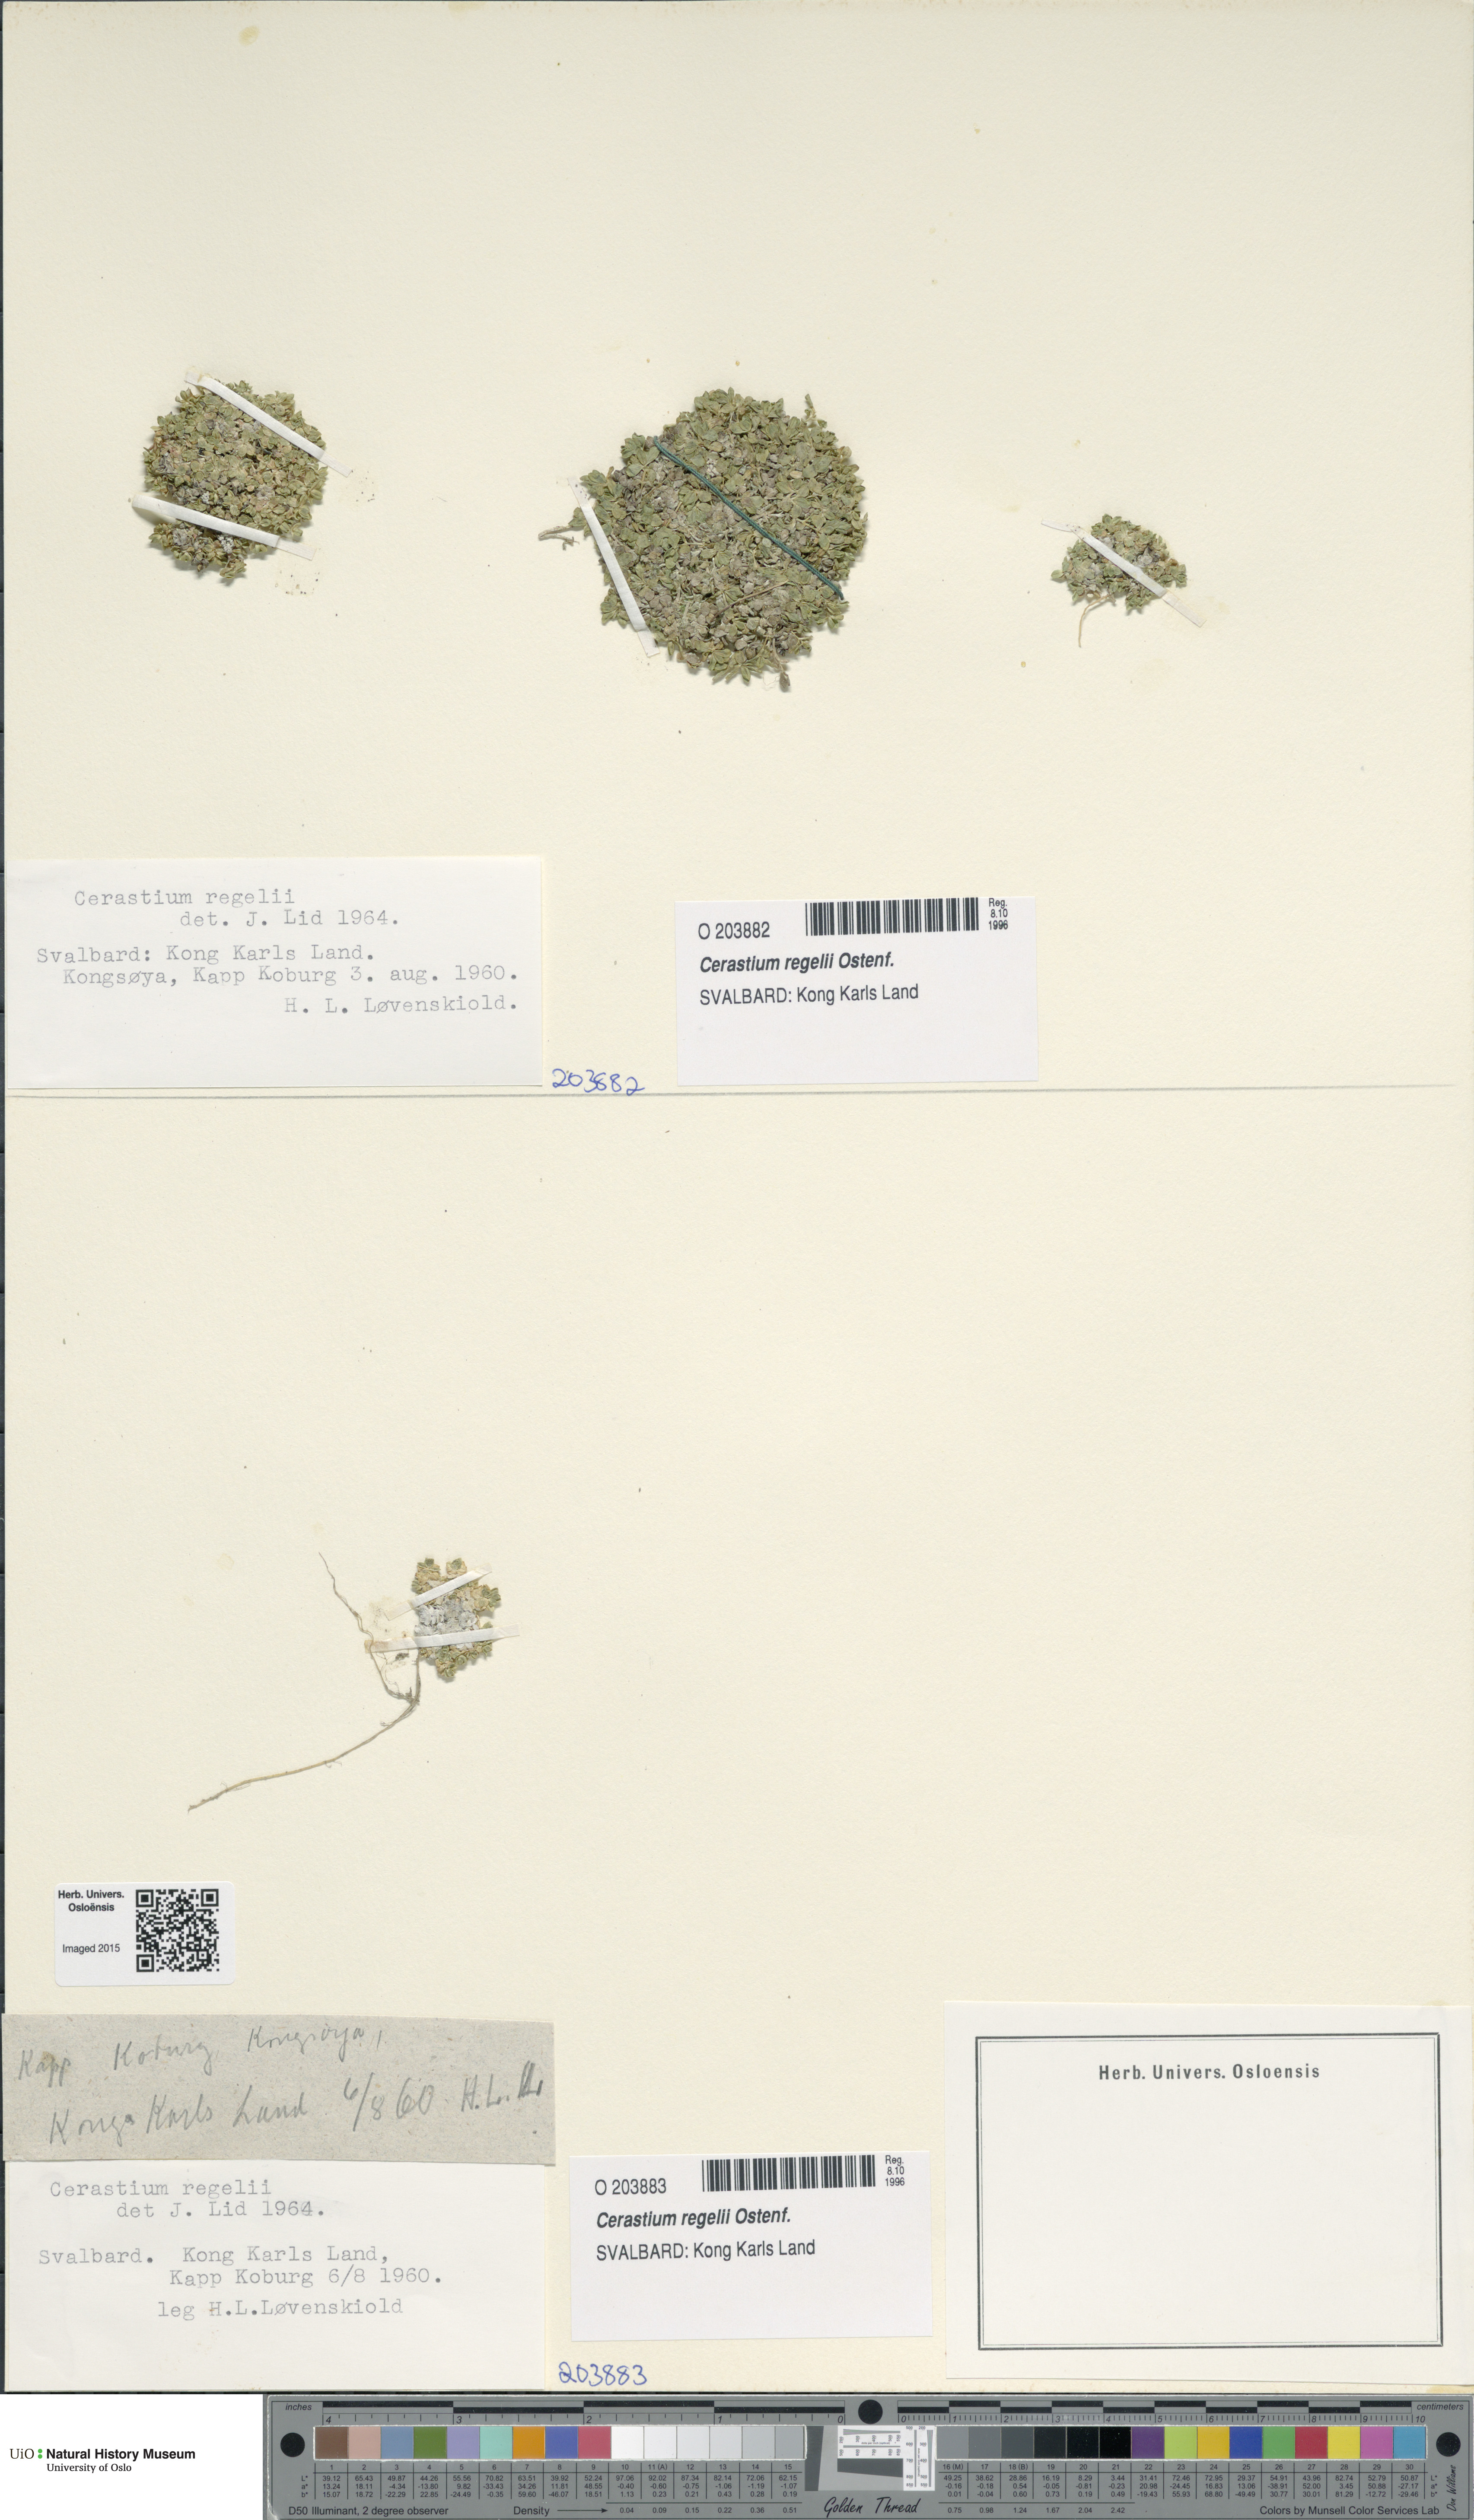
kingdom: Plantae
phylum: Tracheophyta
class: Magnoliopsida
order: Caryophyllales
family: Caryophyllaceae
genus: Cerastium
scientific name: Cerastium regelii
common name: Regel's chickweed
